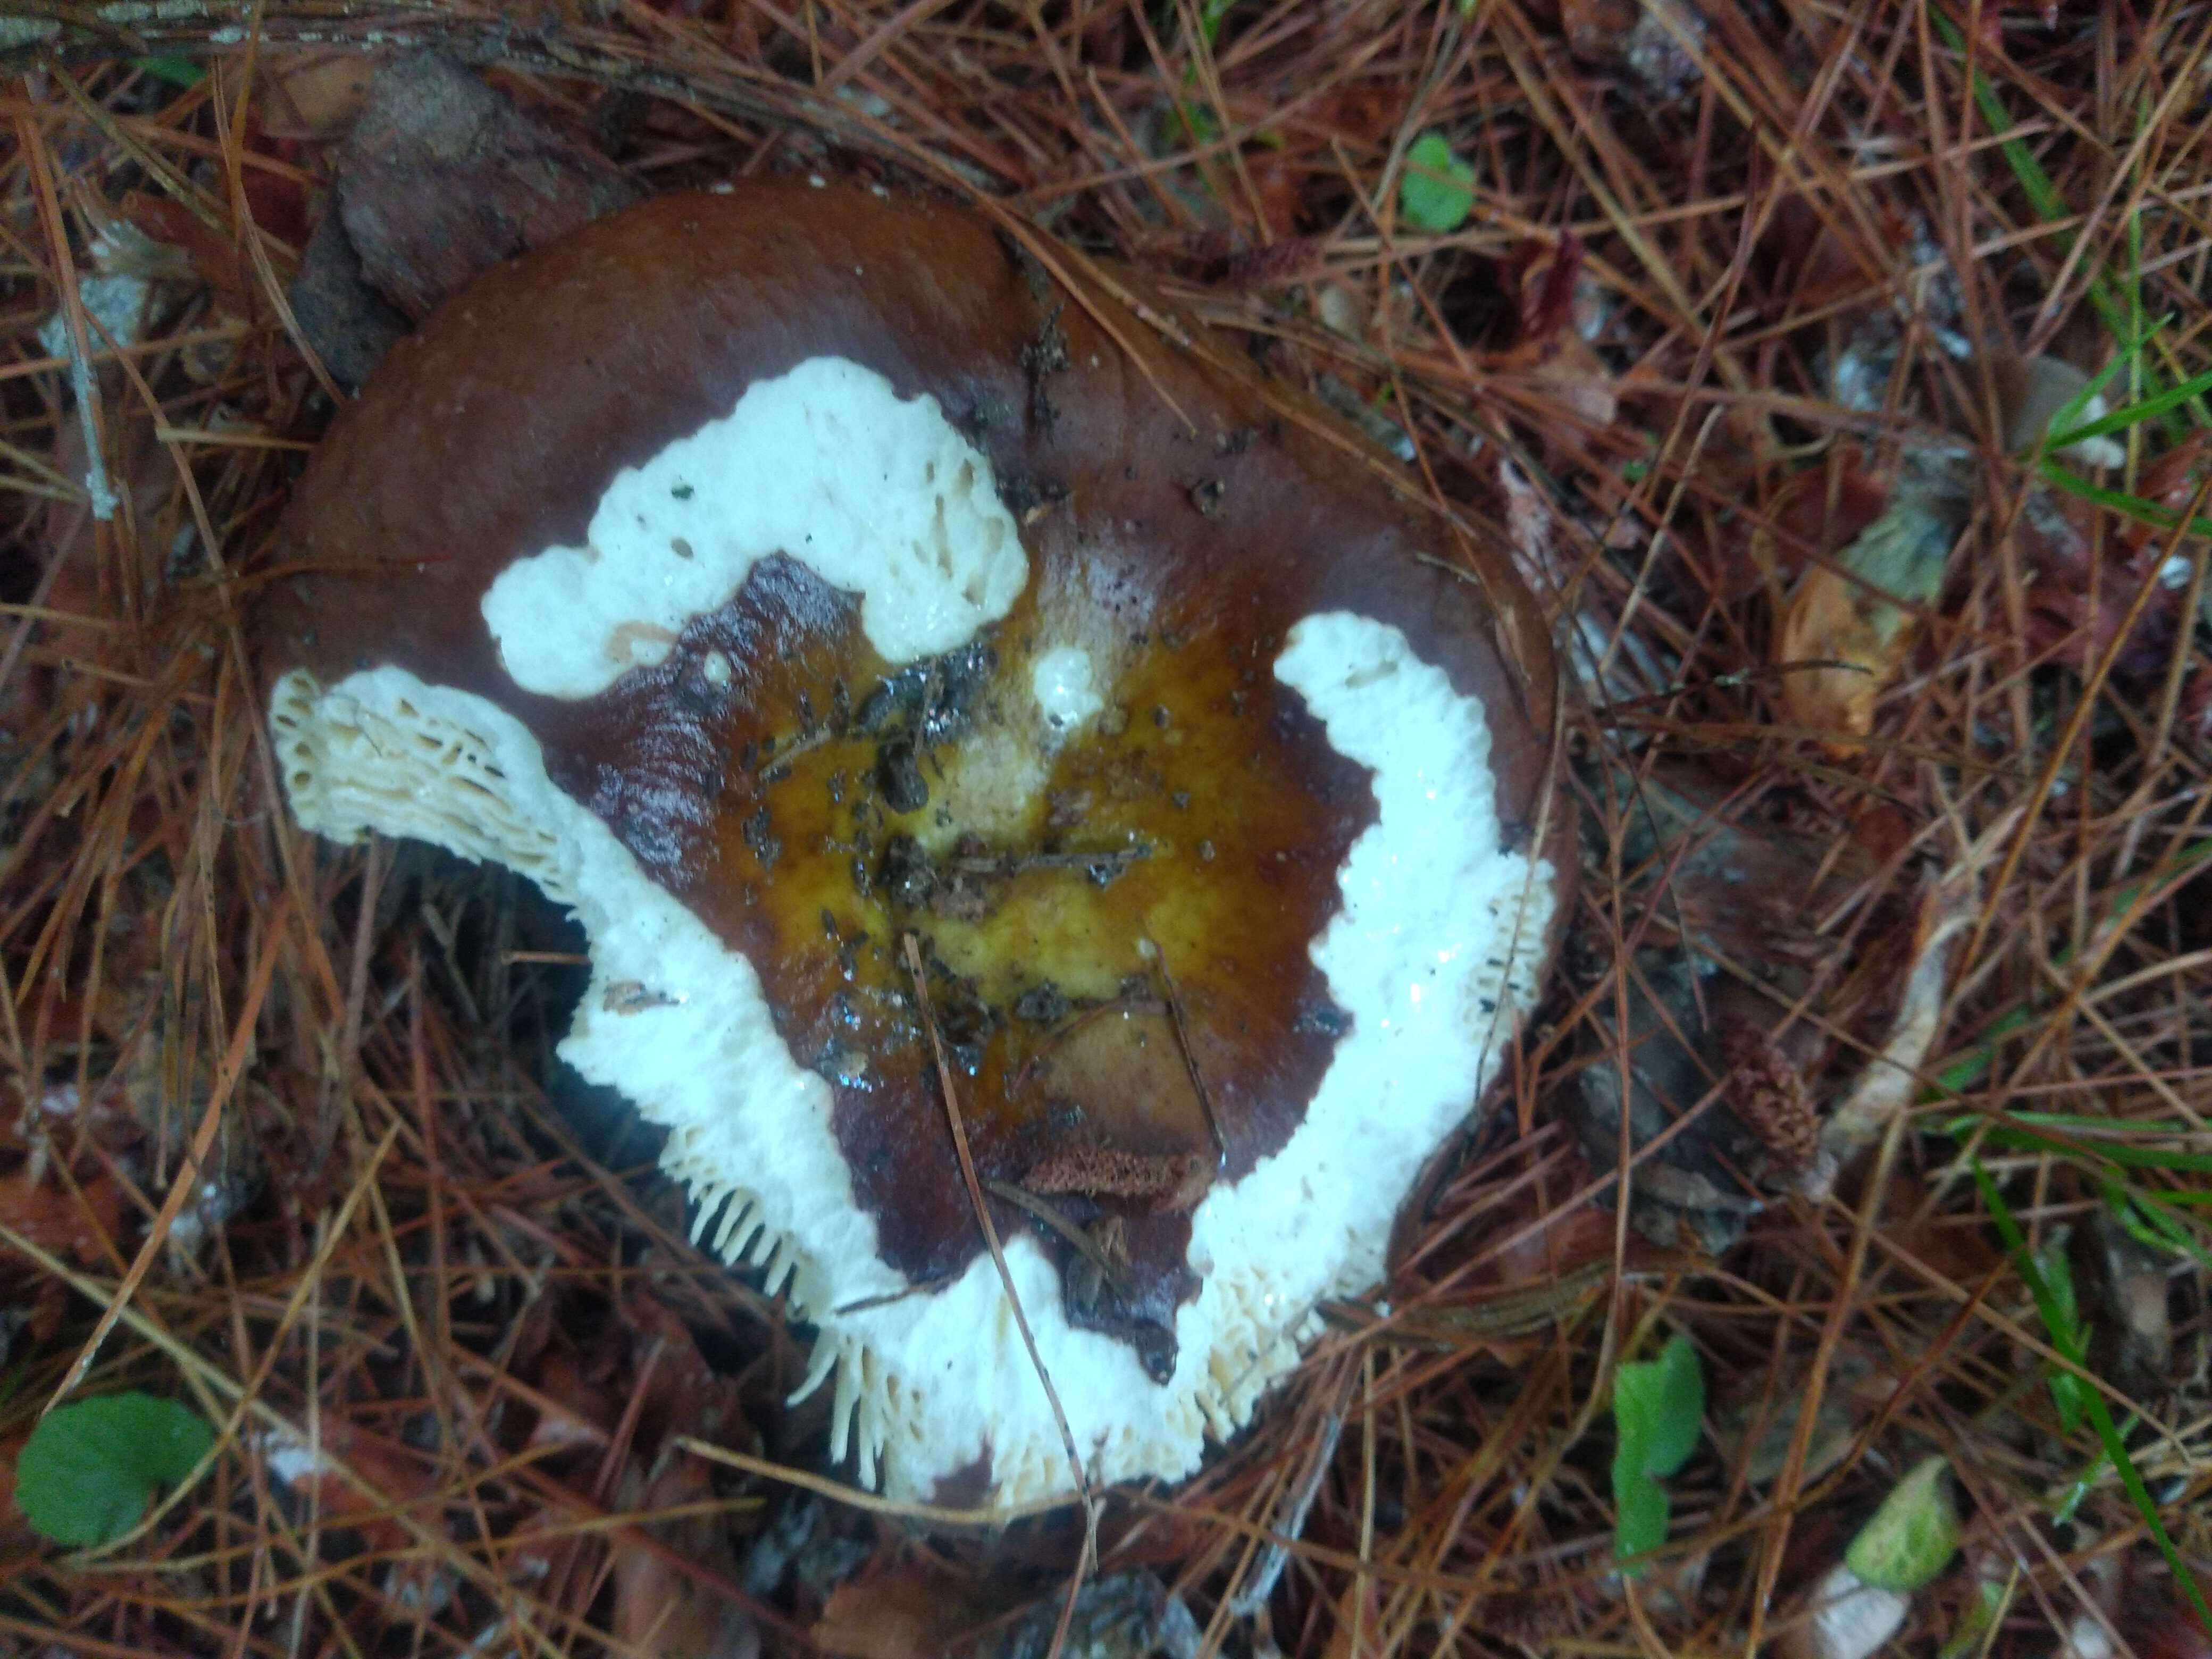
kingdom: Fungi
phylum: Basidiomycota
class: Agaricomycetes
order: Russulales
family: Russulaceae
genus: Russula
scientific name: Russula integra
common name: mandel-skørhat
